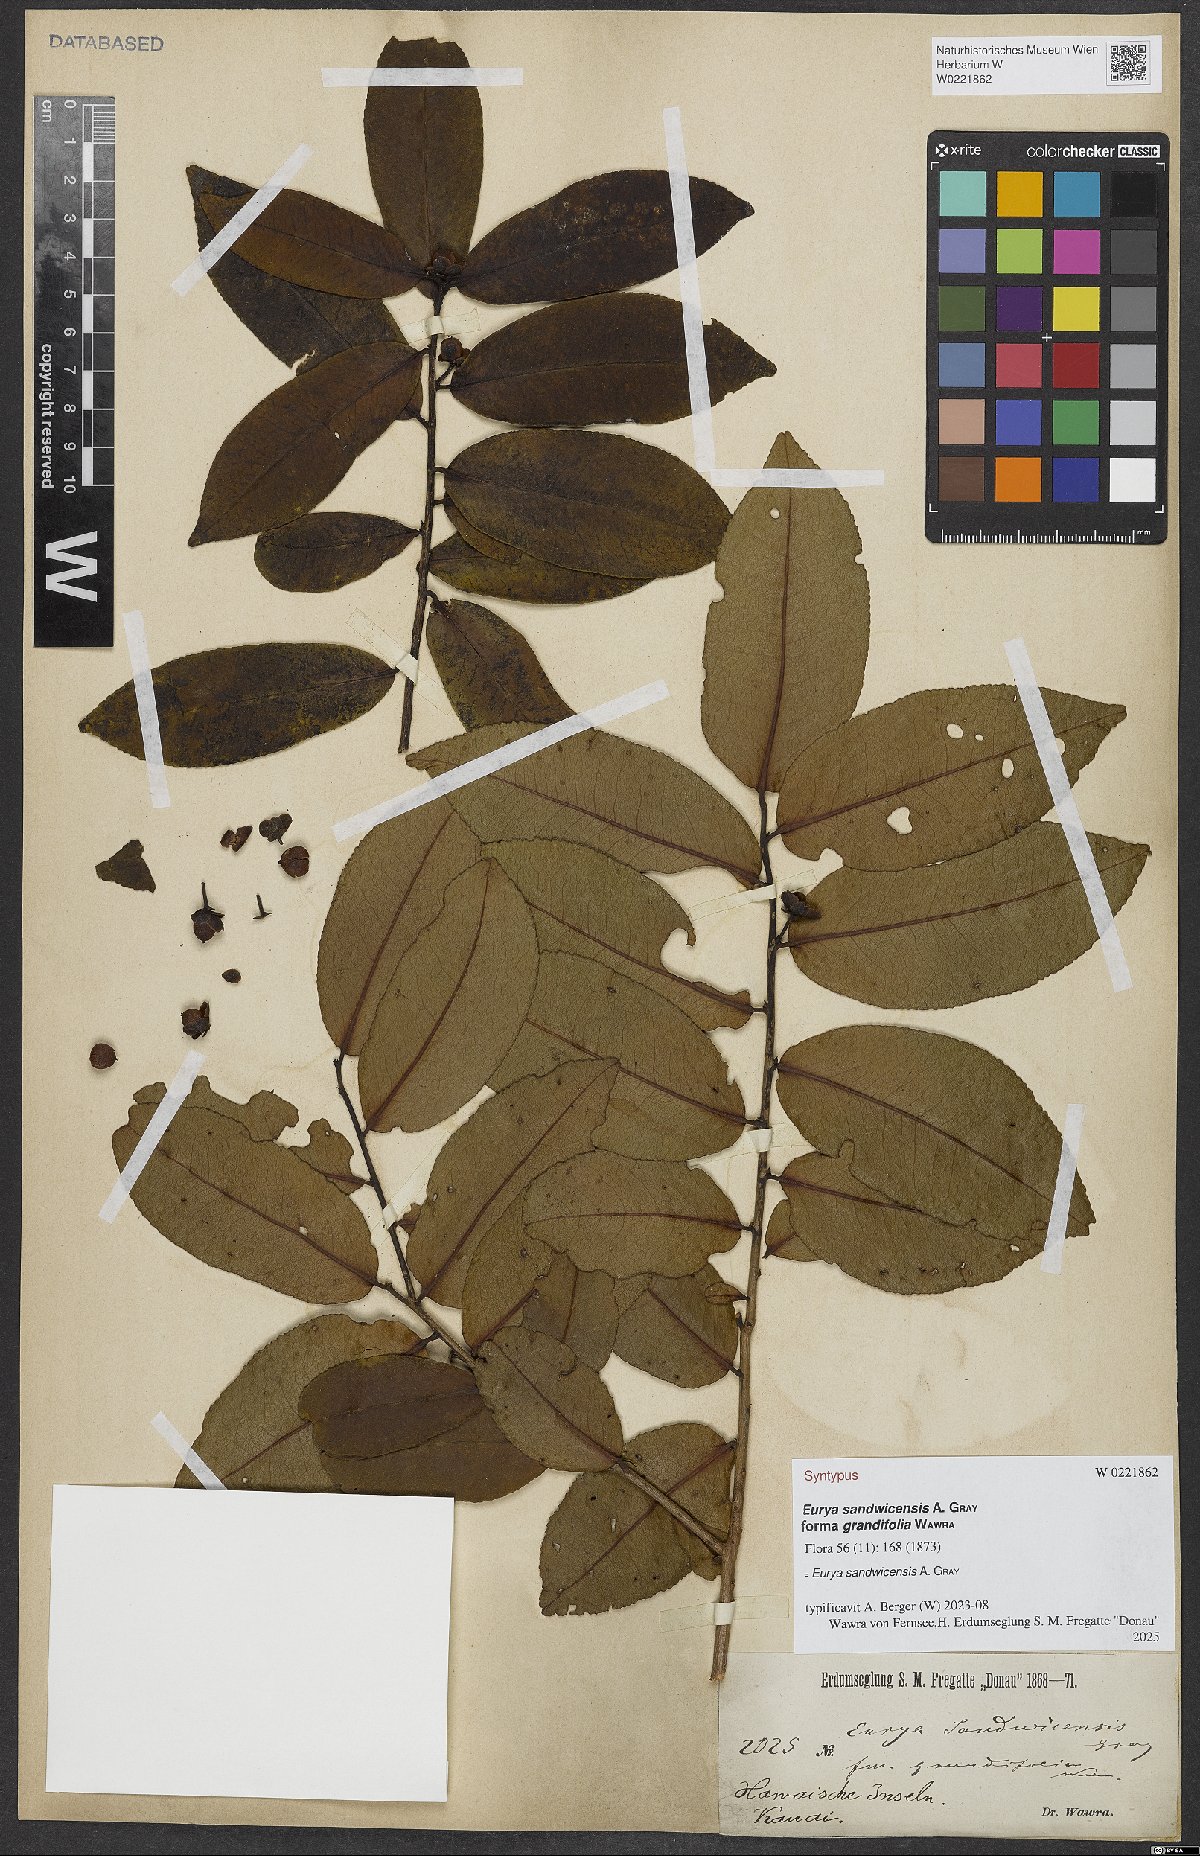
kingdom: Plantae
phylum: Tracheophyta
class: Magnoliopsida
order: Ericales
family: Pentaphylacaceae
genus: Eurya
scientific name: Eurya sandwicensis
